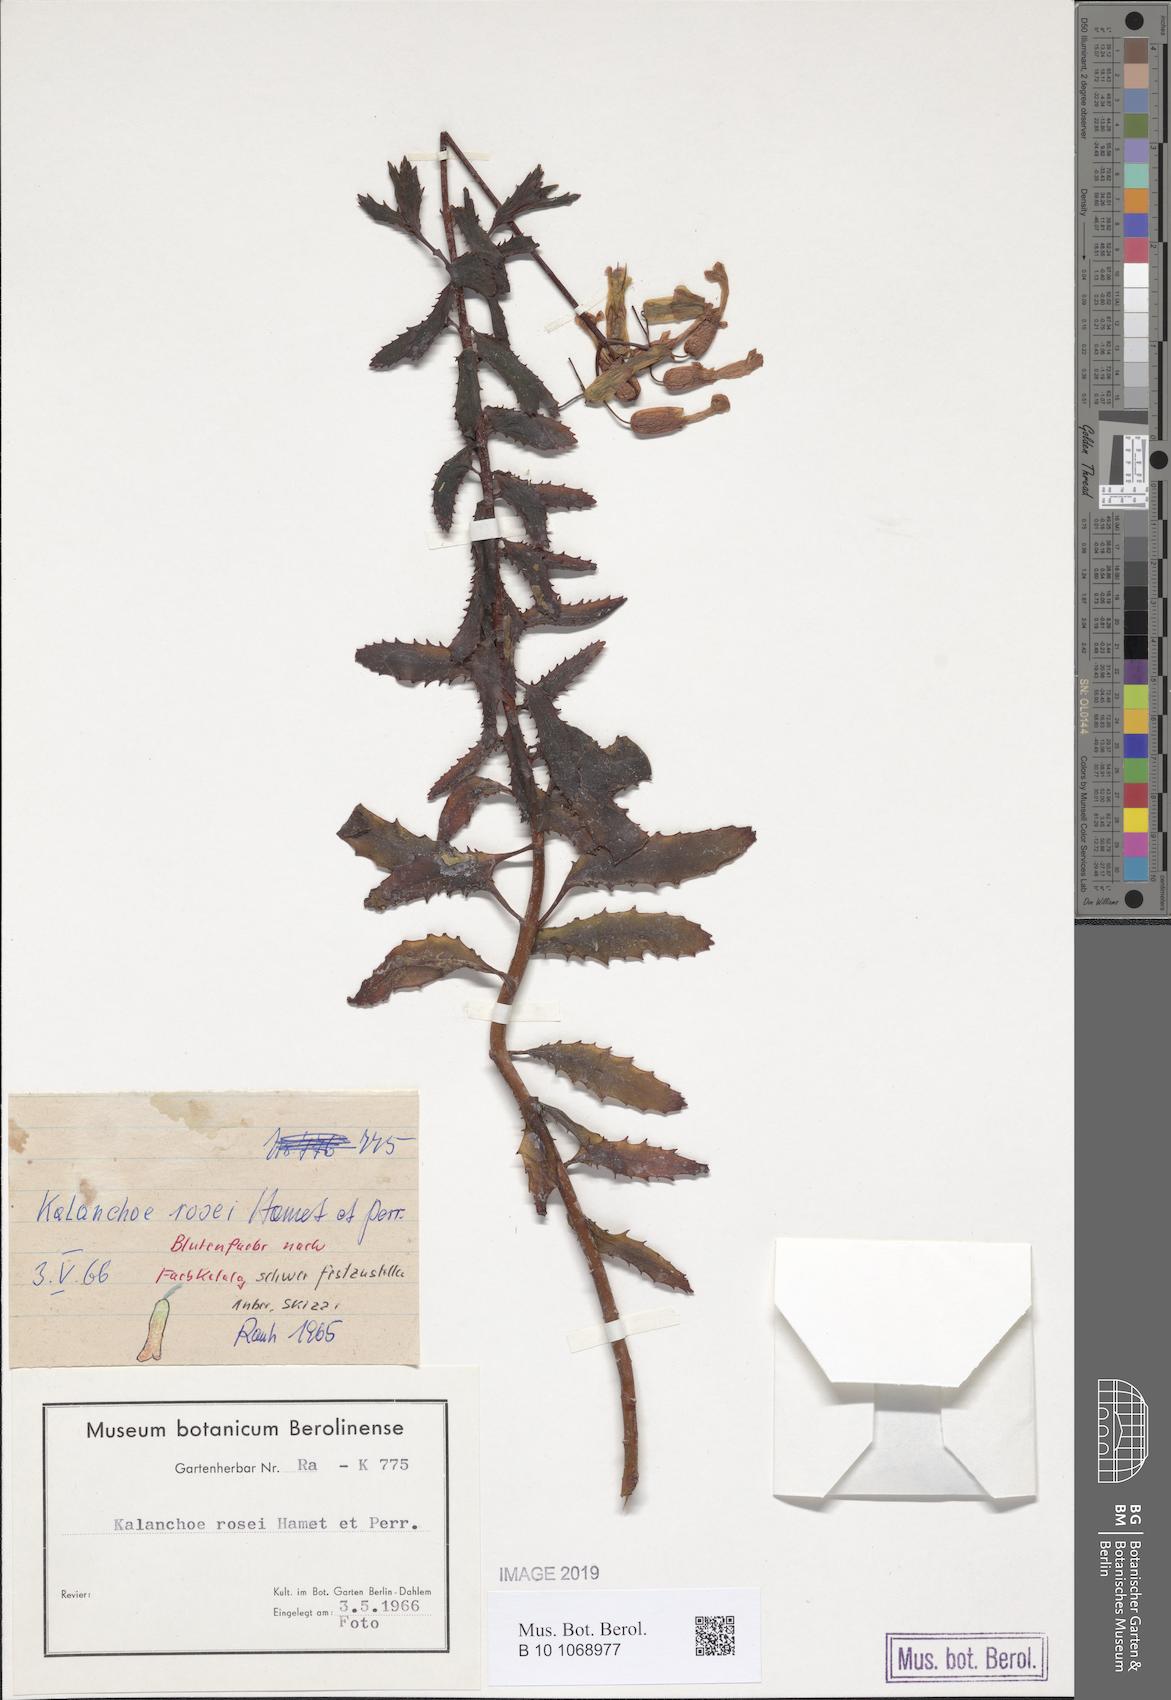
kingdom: Plantae
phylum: Tracheophyta
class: Magnoliopsida
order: Saxifragales
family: Crassulaceae
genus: Kalanchoe
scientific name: Kalanchoe rosei
